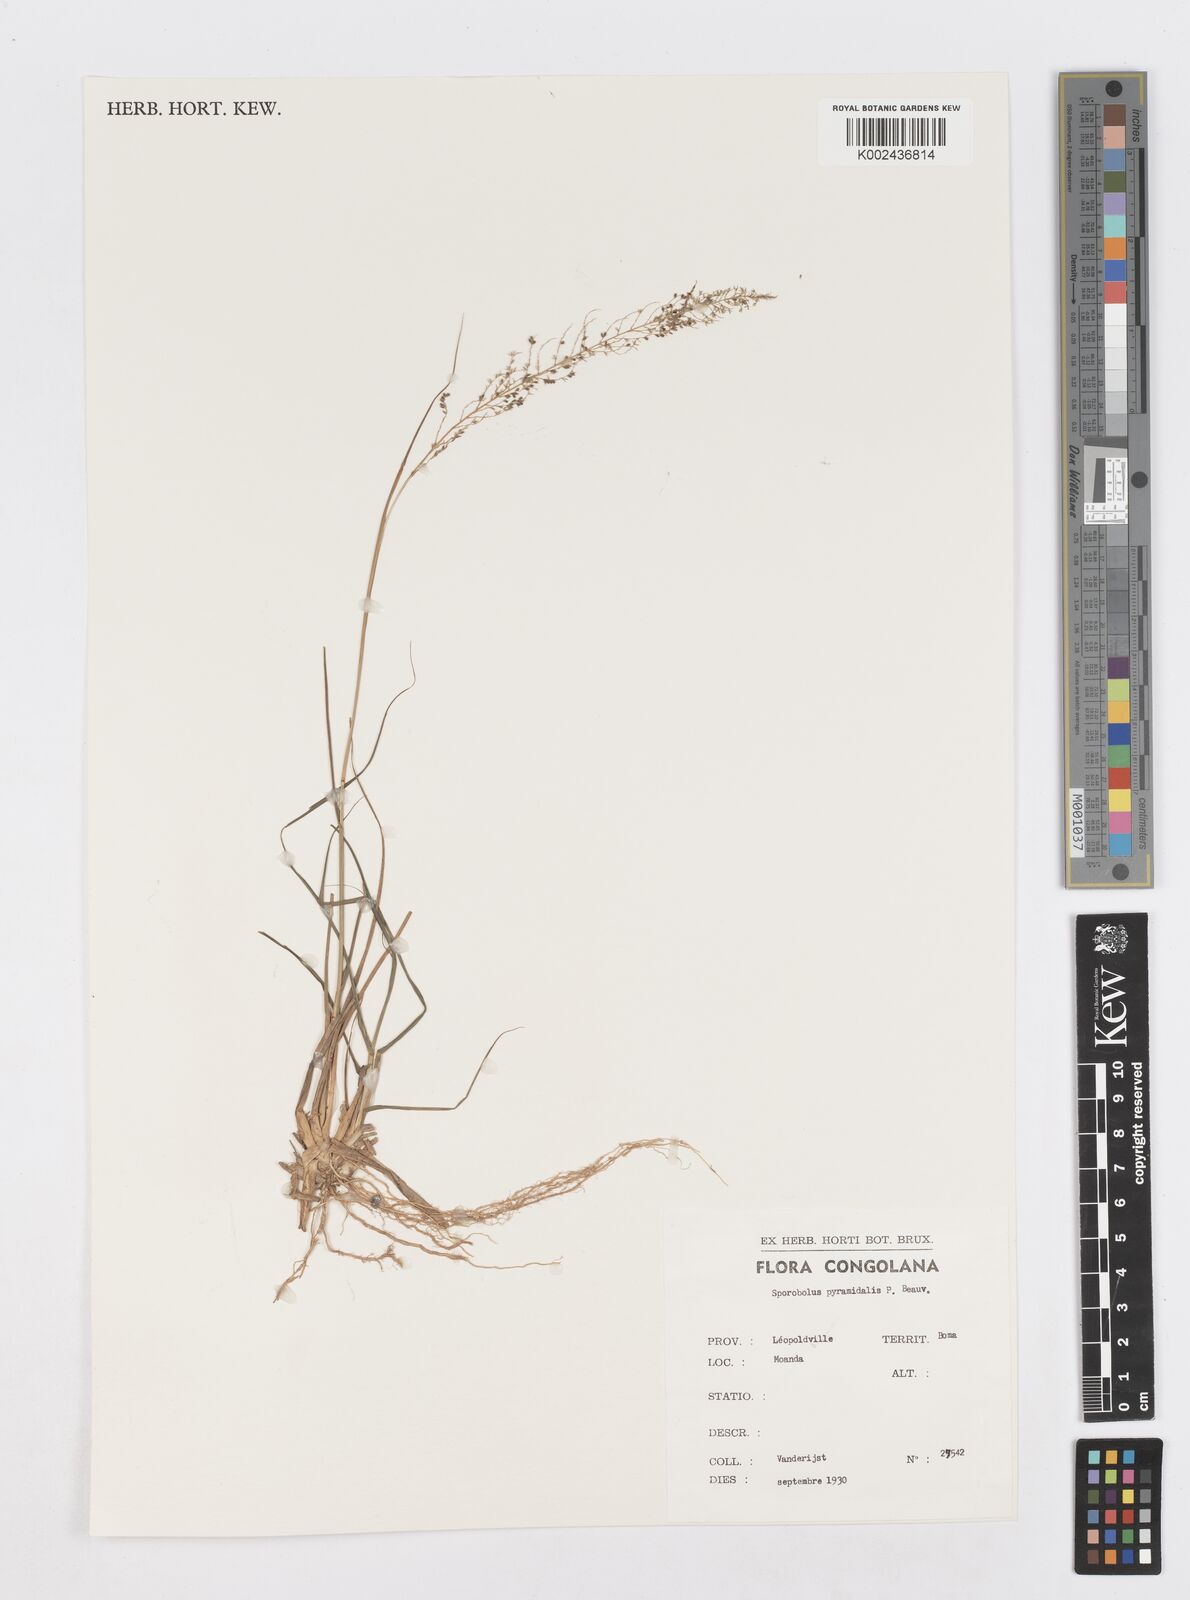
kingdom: Plantae
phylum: Tracheophyta
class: Liliopsida
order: Poales
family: Poaceae
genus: Sporobolus
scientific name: Sporobolus pyramidalis
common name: West indian dropseed
